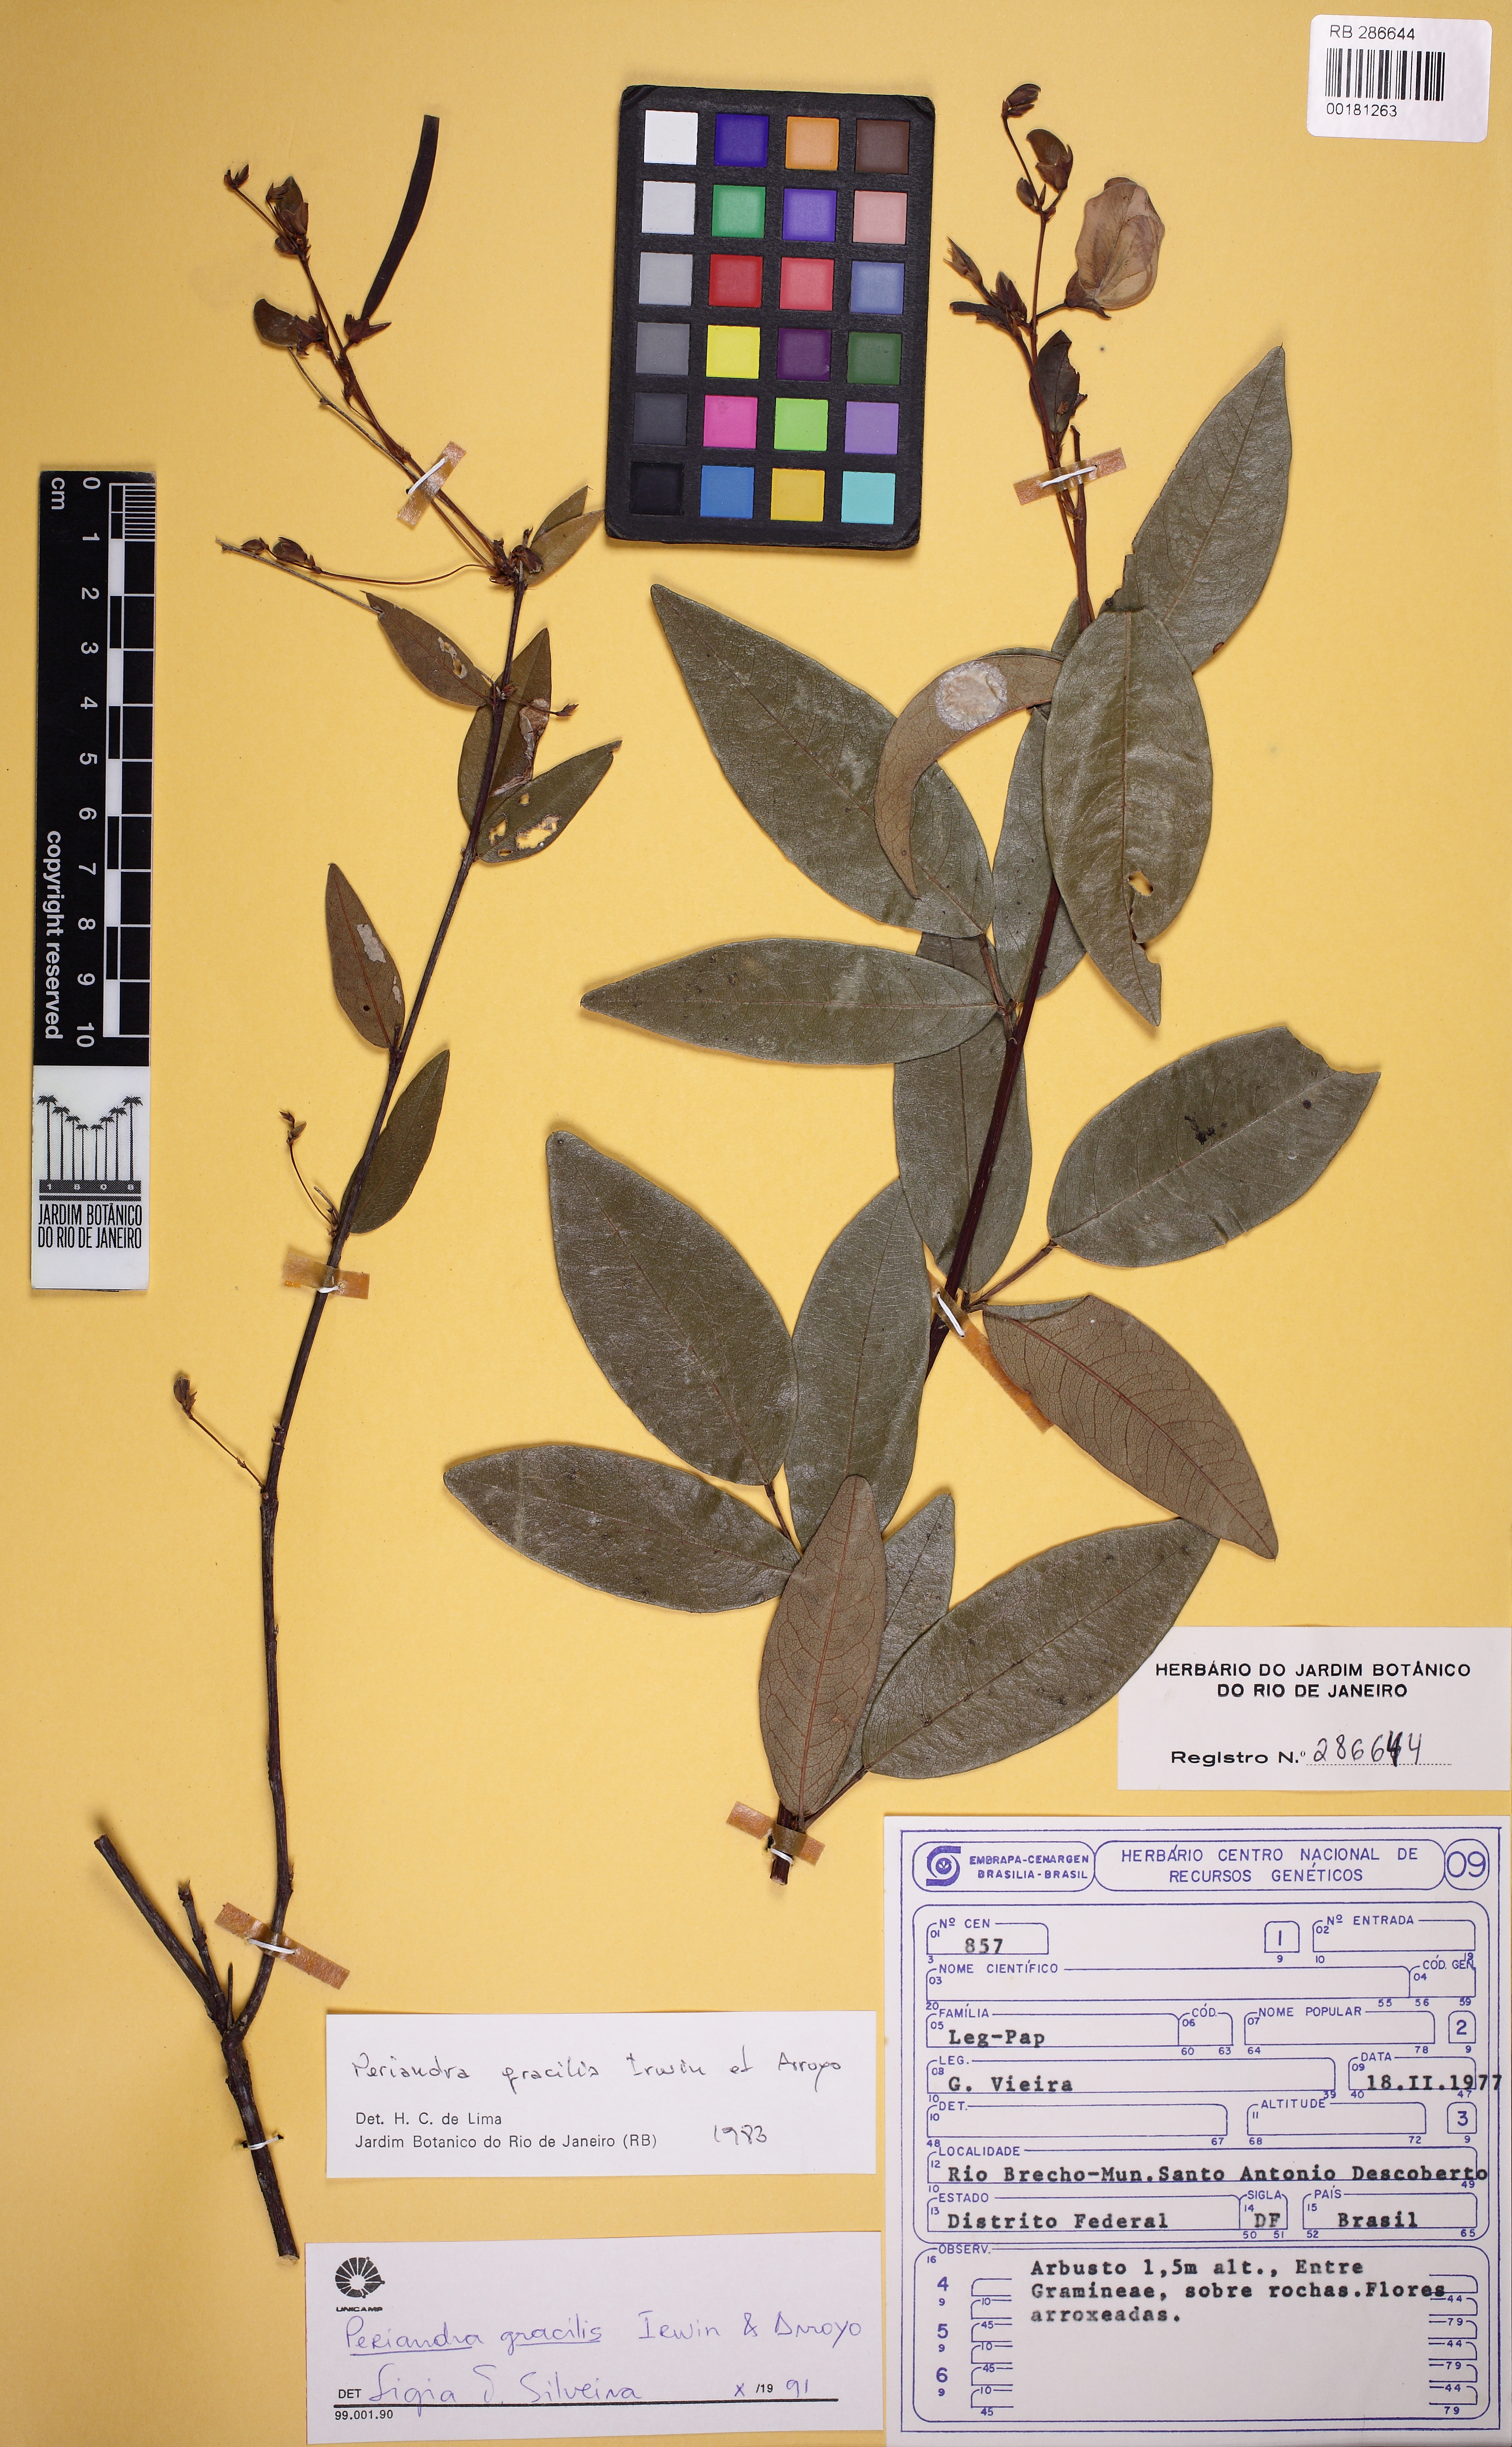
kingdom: Plantae
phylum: Tracheophyta
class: Magnoliopsida
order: Fabales
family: Fabaceae
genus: Periandra
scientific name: Periandra gracilis
